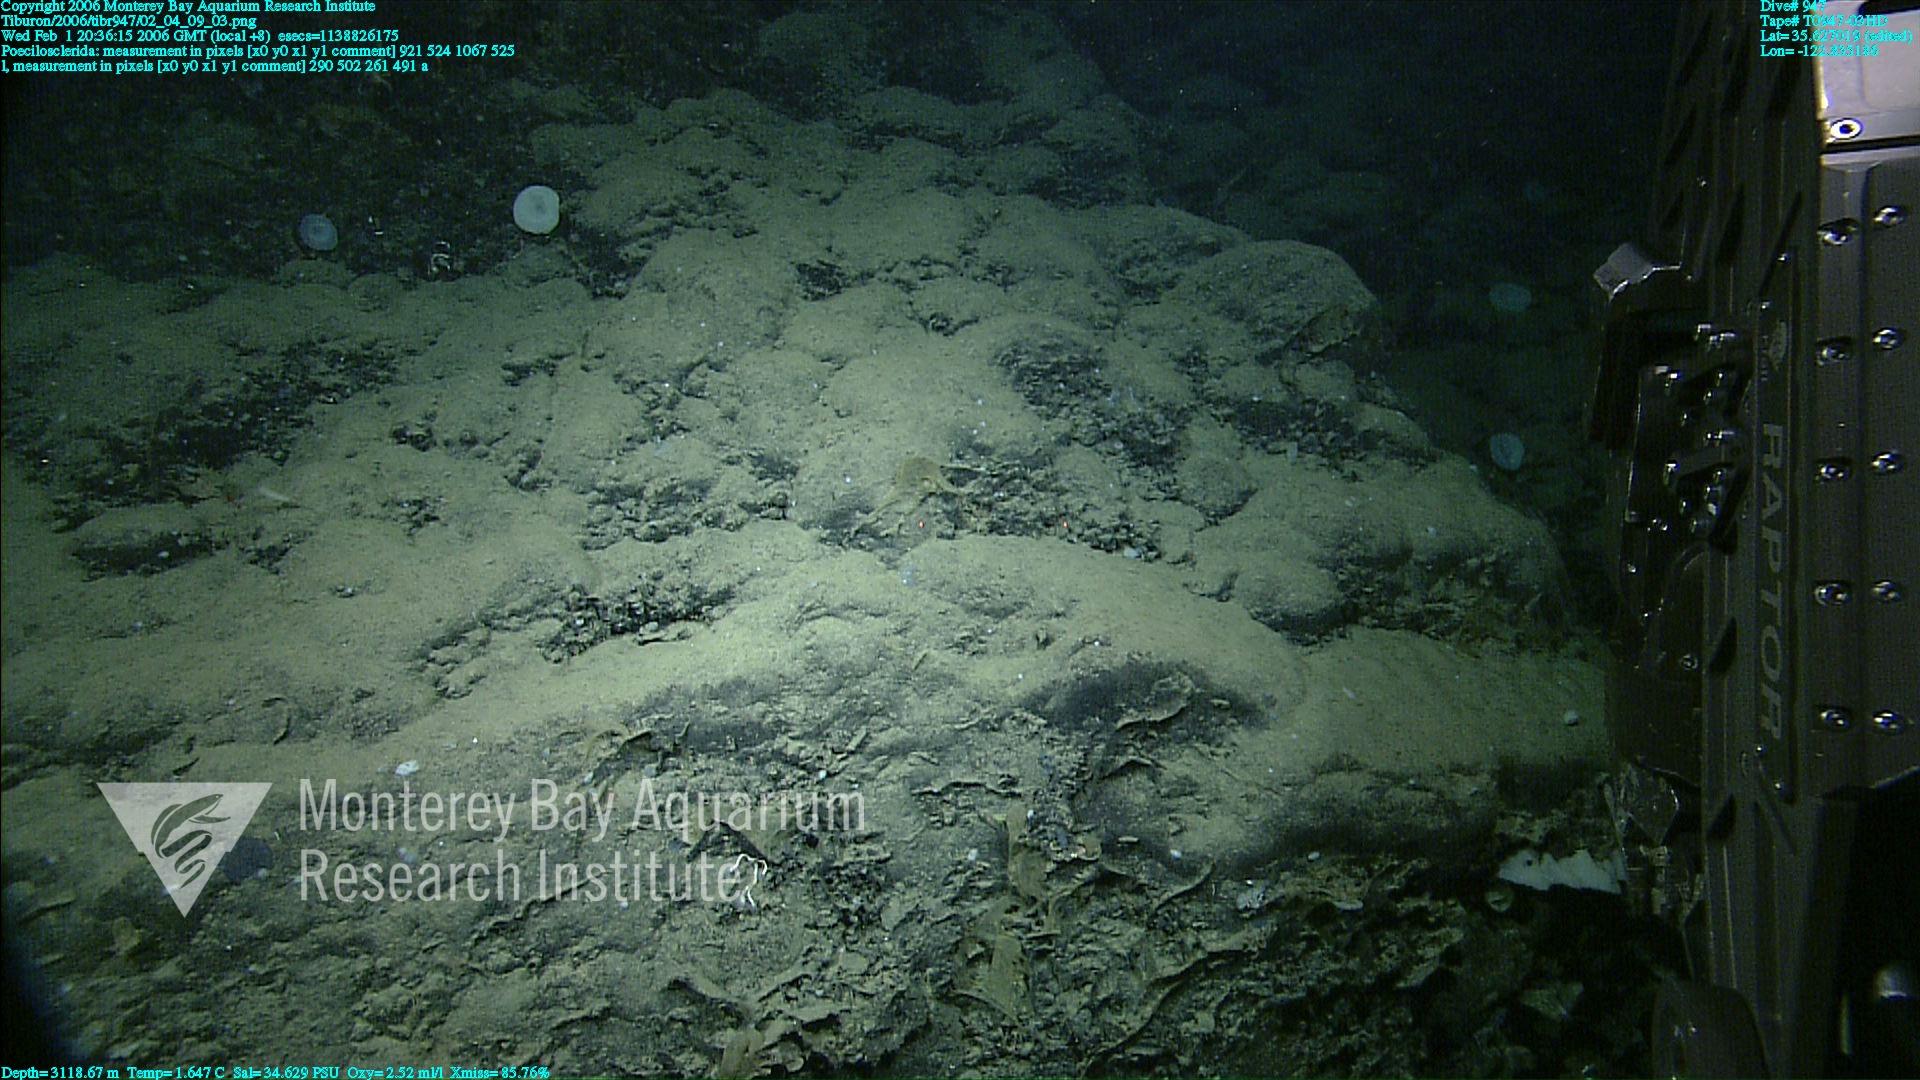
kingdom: Animalia
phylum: Porifera
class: Demospongiae
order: Poecilosclerida
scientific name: Poecilosclerida
